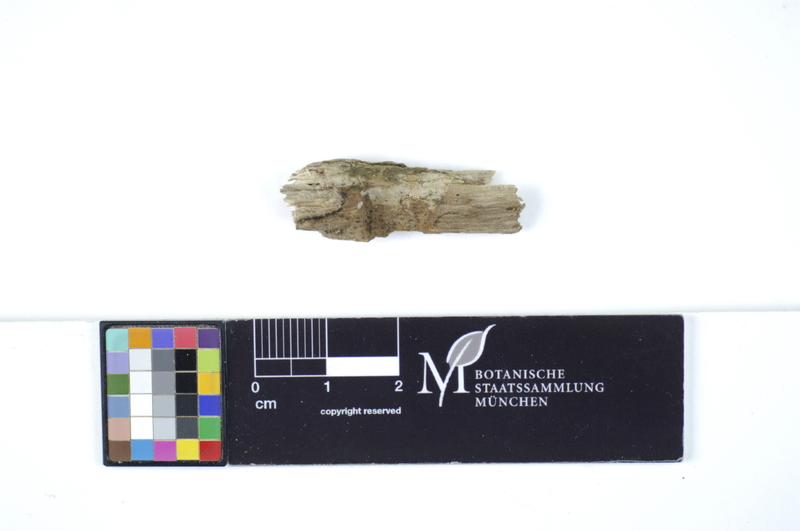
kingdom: Plantae
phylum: Tracheophyta
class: Magnoliopsida
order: Fagales
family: Betulaceae
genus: Alnus
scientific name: Alnus
